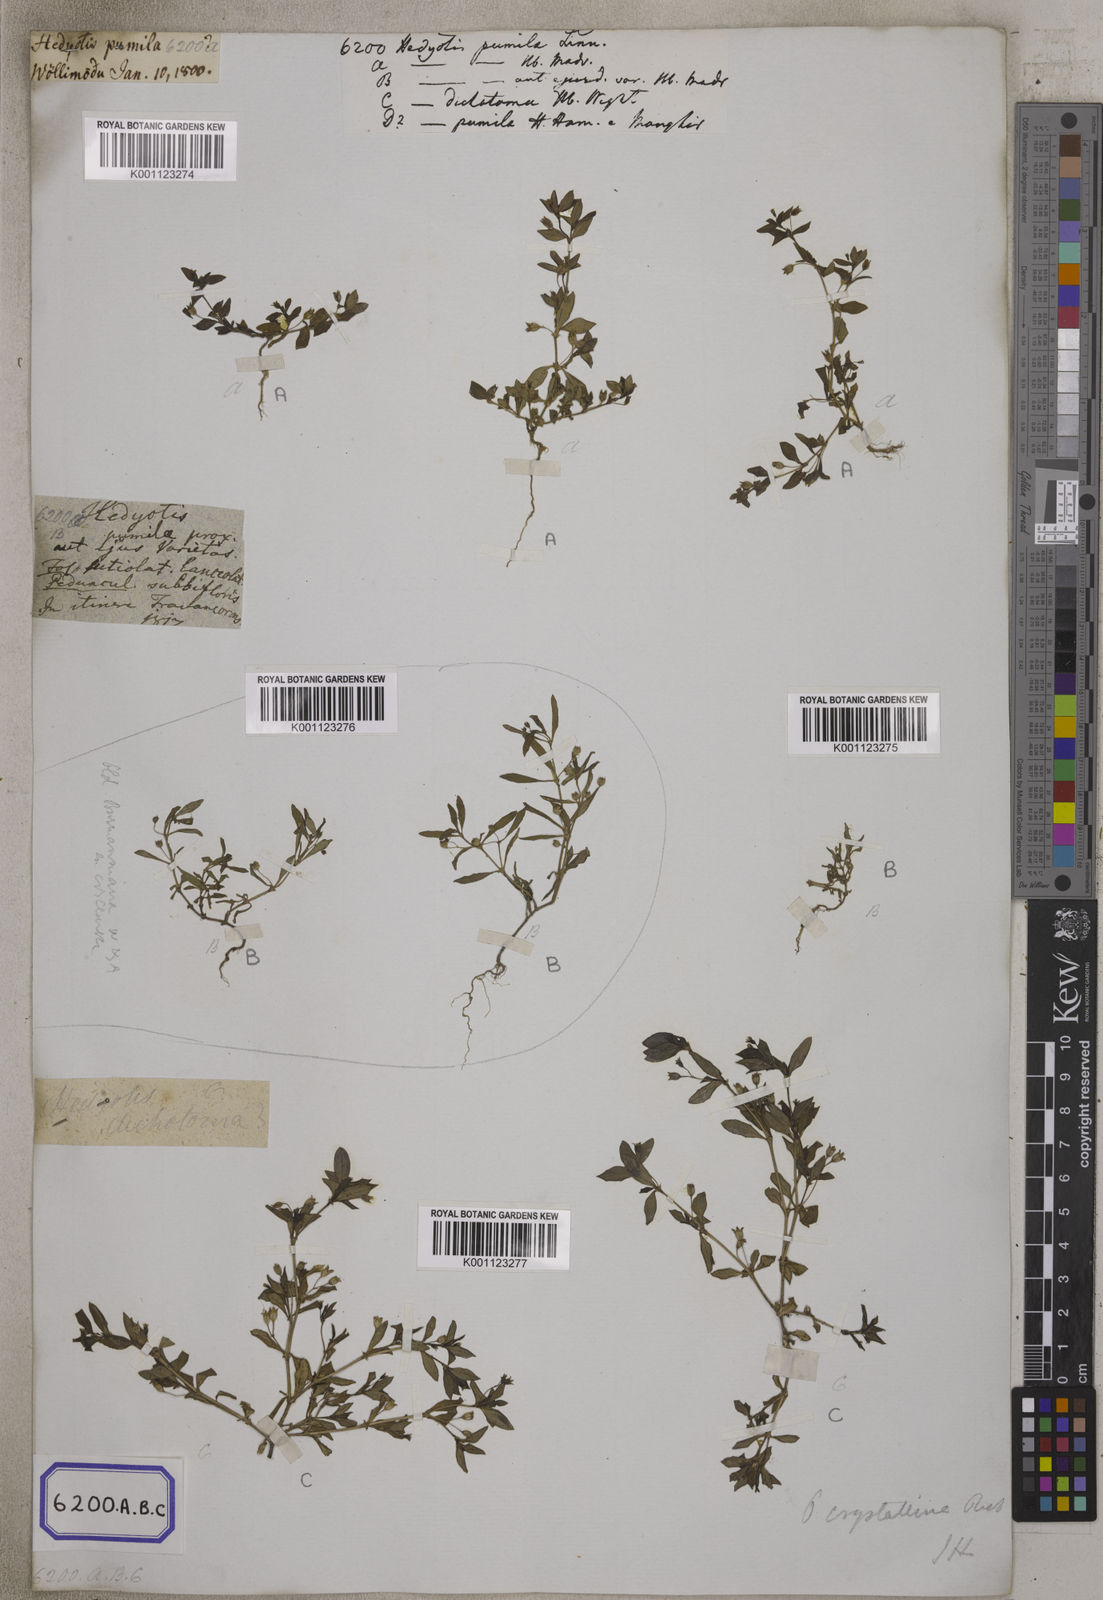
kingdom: Plantae
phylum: Tracheophyta
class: Magnoliopsida
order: Gentianales
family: Rubiaceae
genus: Oldenlandia
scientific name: Oldenlandia pumila
